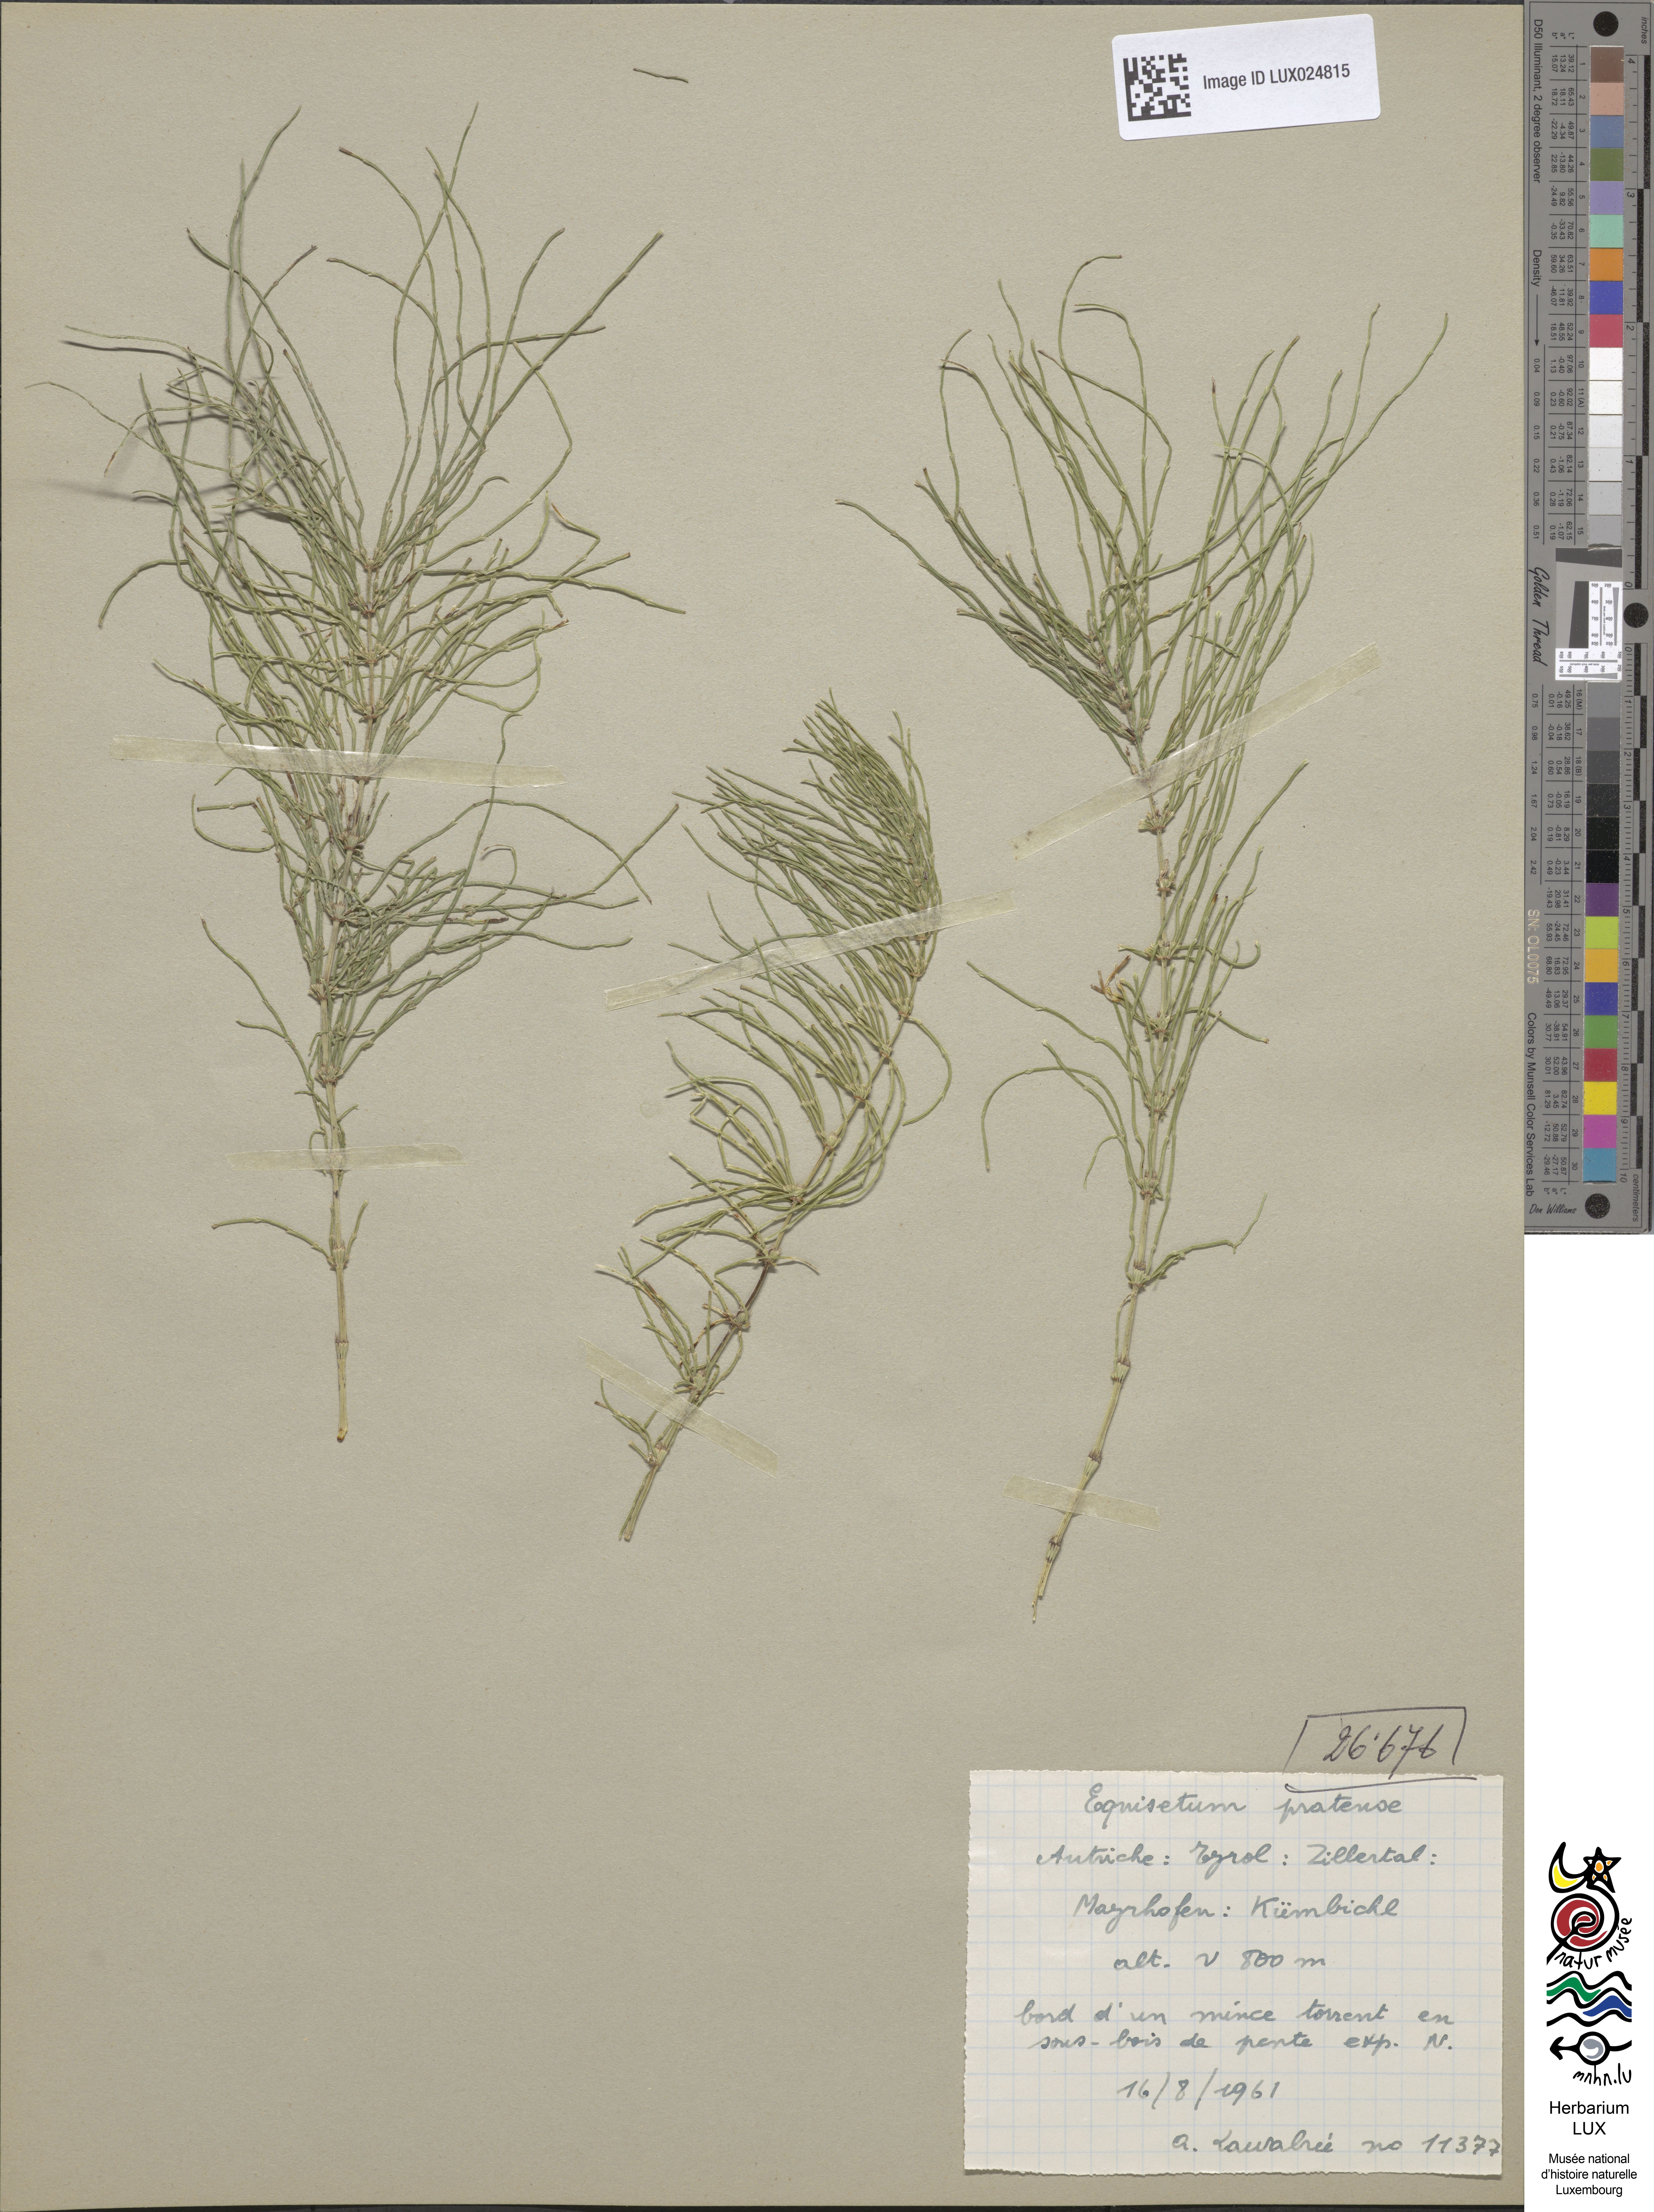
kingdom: Plantae
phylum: Tracheophyta
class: Polypodiopsida
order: Equisetales
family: Equisetaceae
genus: Equisetum
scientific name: Equisetum pratense
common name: Meadow horsetail
